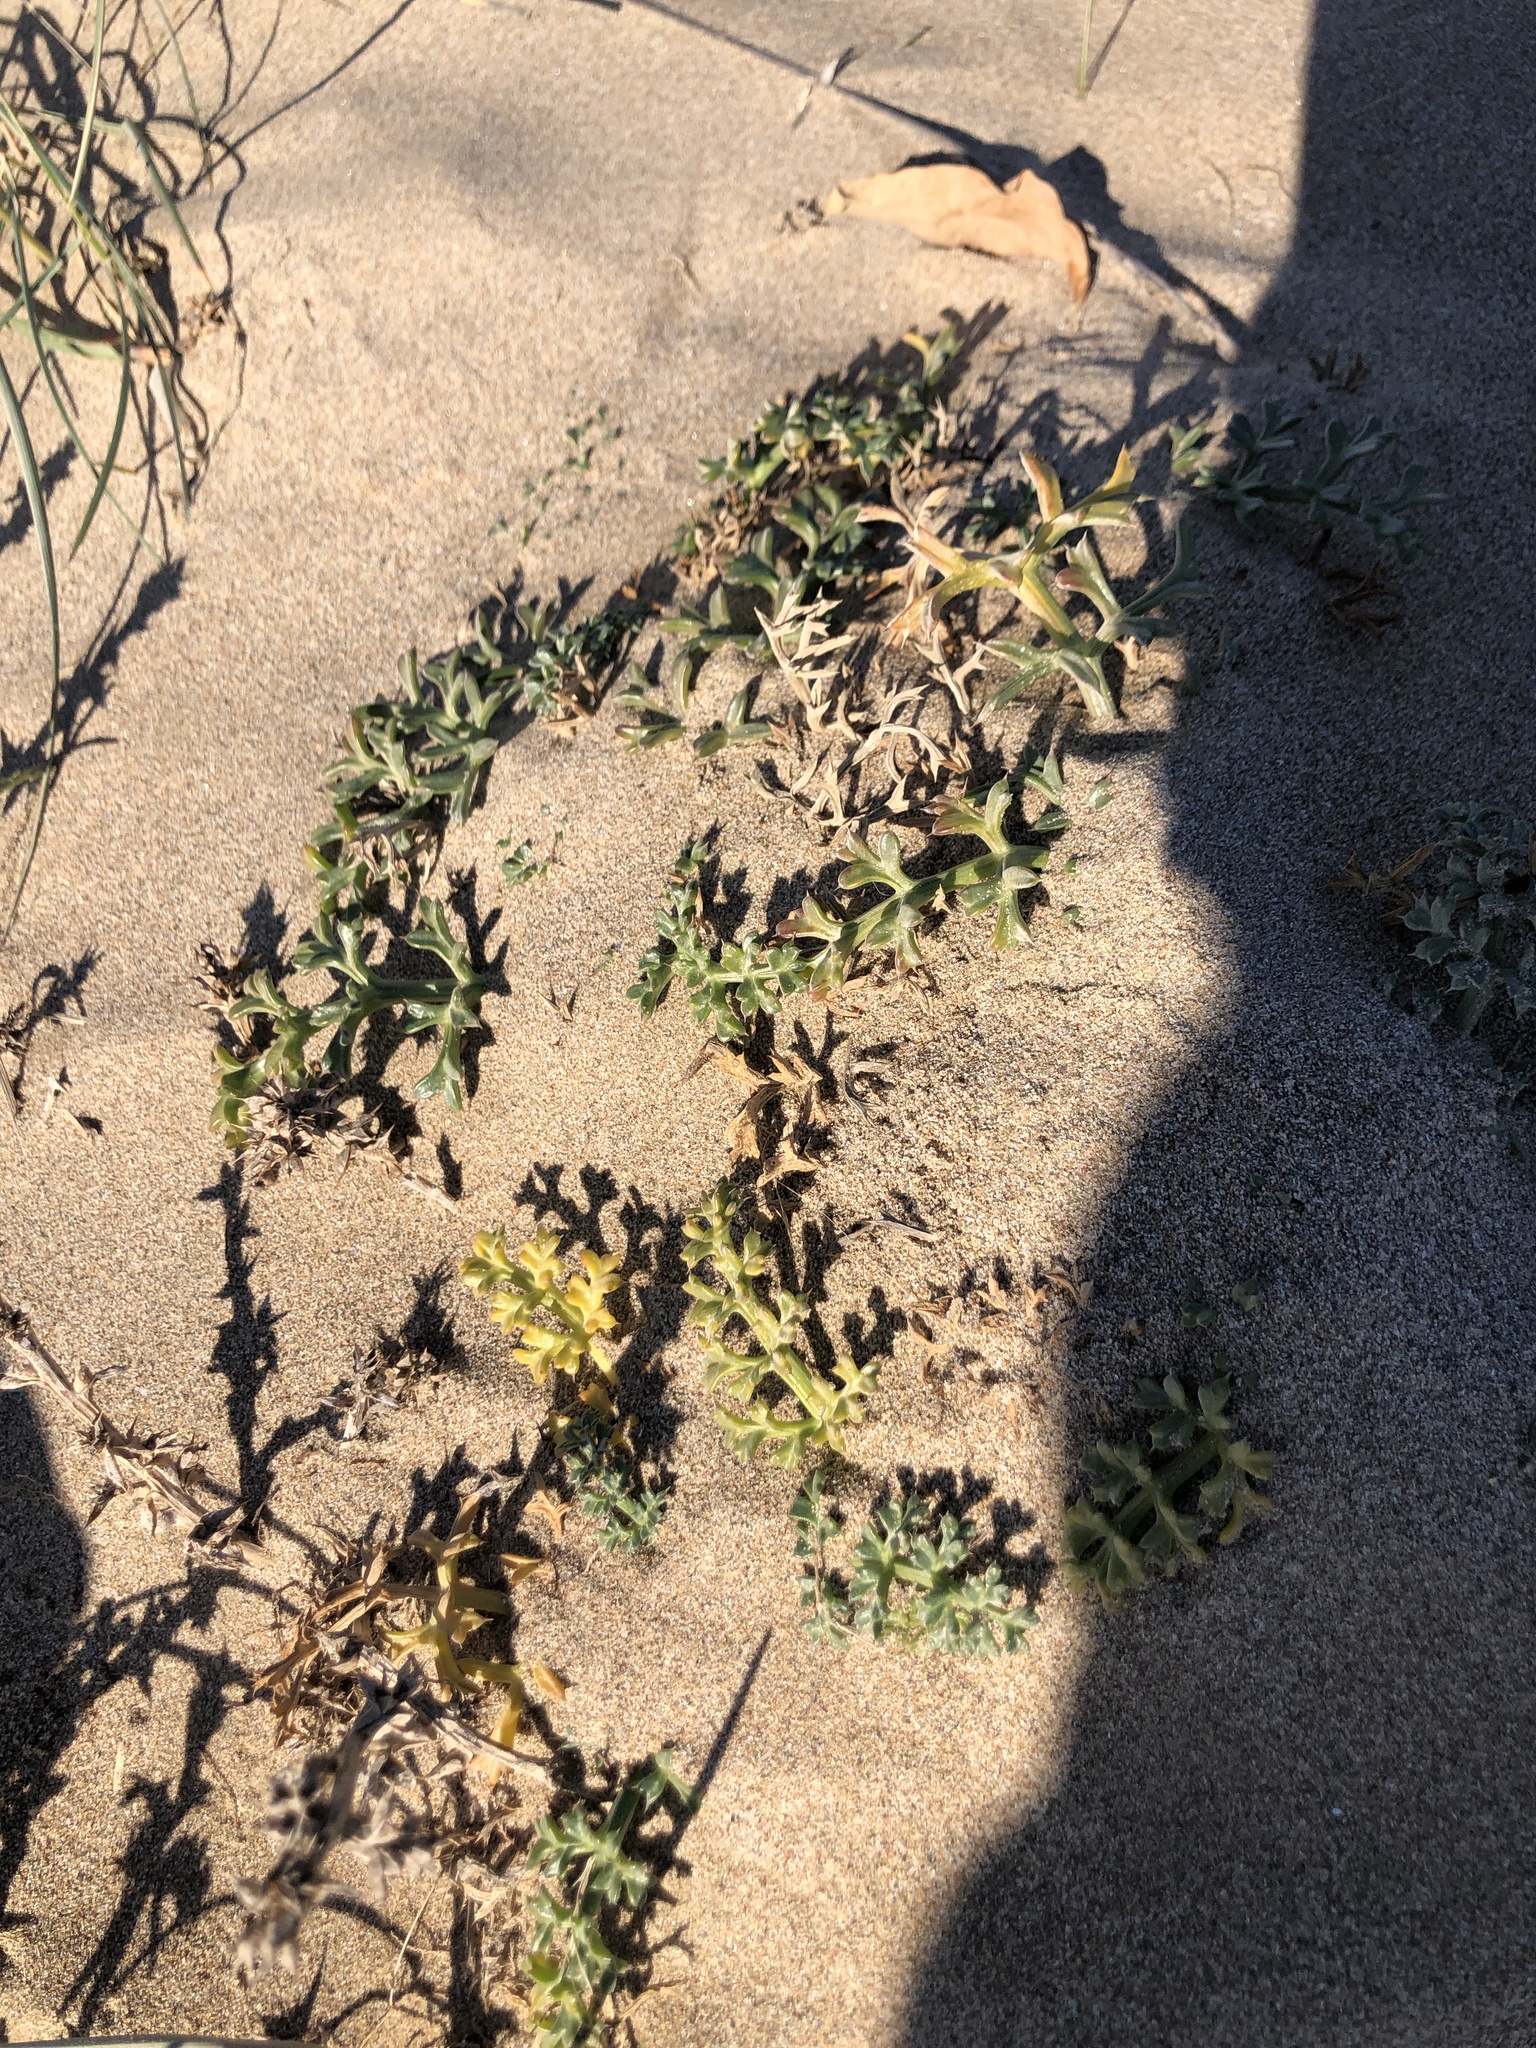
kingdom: Plantae
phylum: Tracheophyta
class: Magnoliopsida
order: Apiales
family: Apiaceae
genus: Echinophora
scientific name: Echinophora spinosa
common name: Prickly samphire
